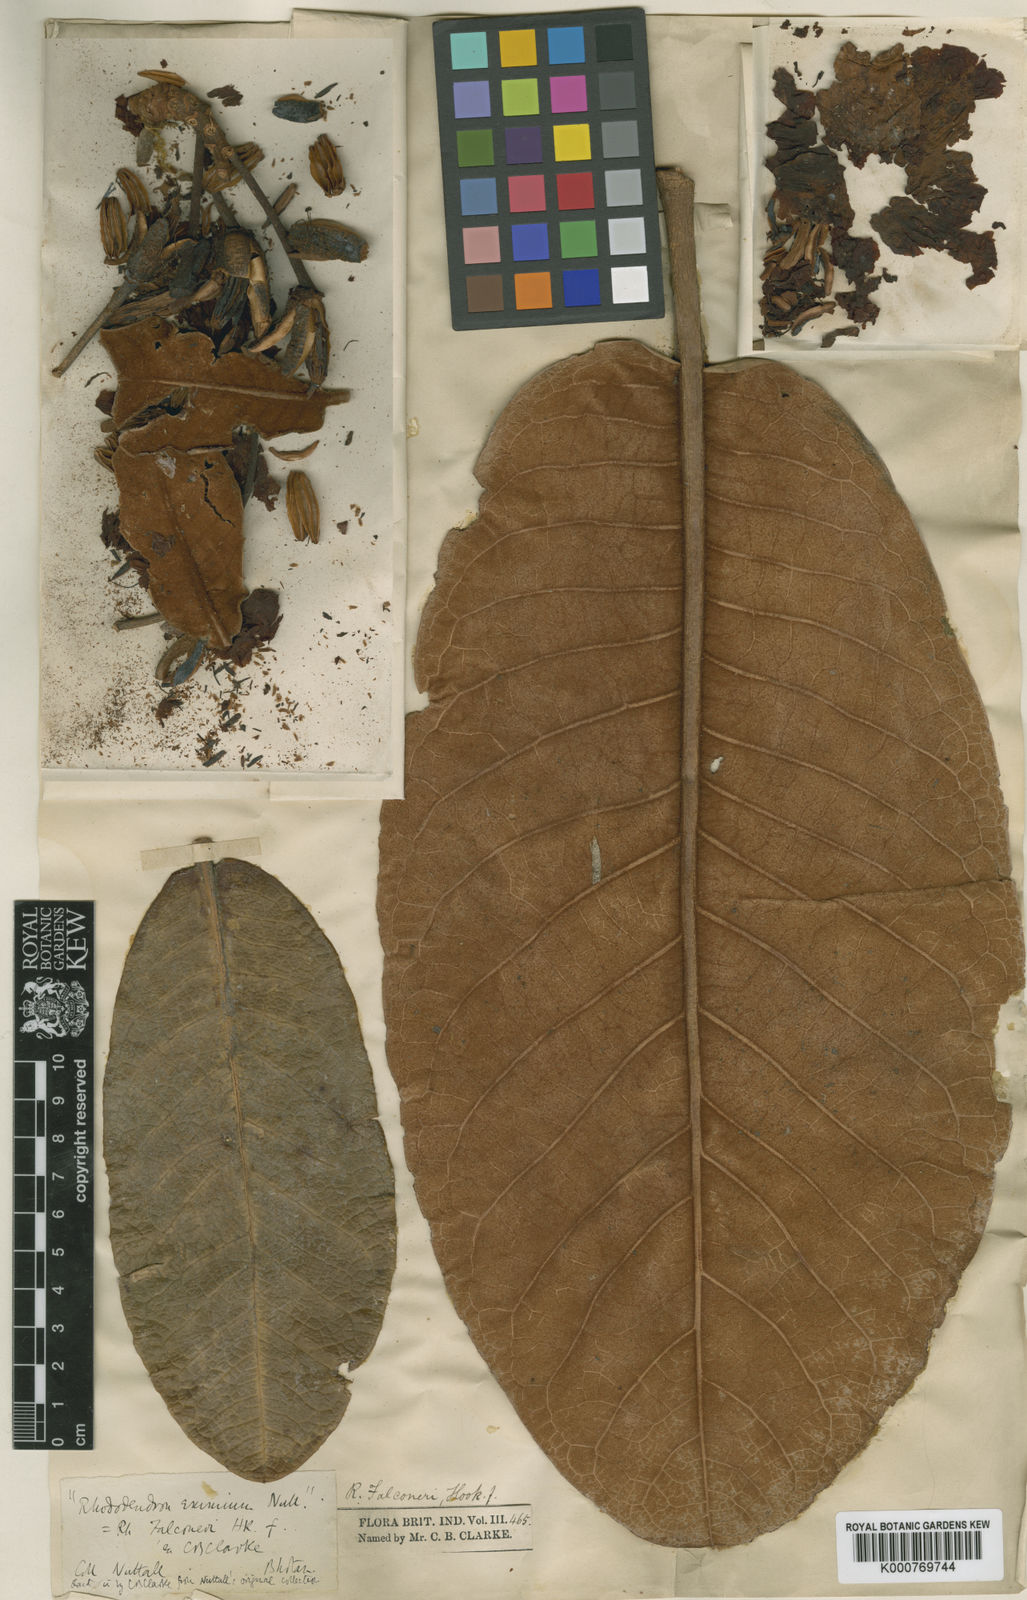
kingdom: Plantae
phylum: Tracheophyta
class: Magnoliopsida
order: Ericales
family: Ericaceae
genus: Rhododendron
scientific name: Rhododendron falconeri
